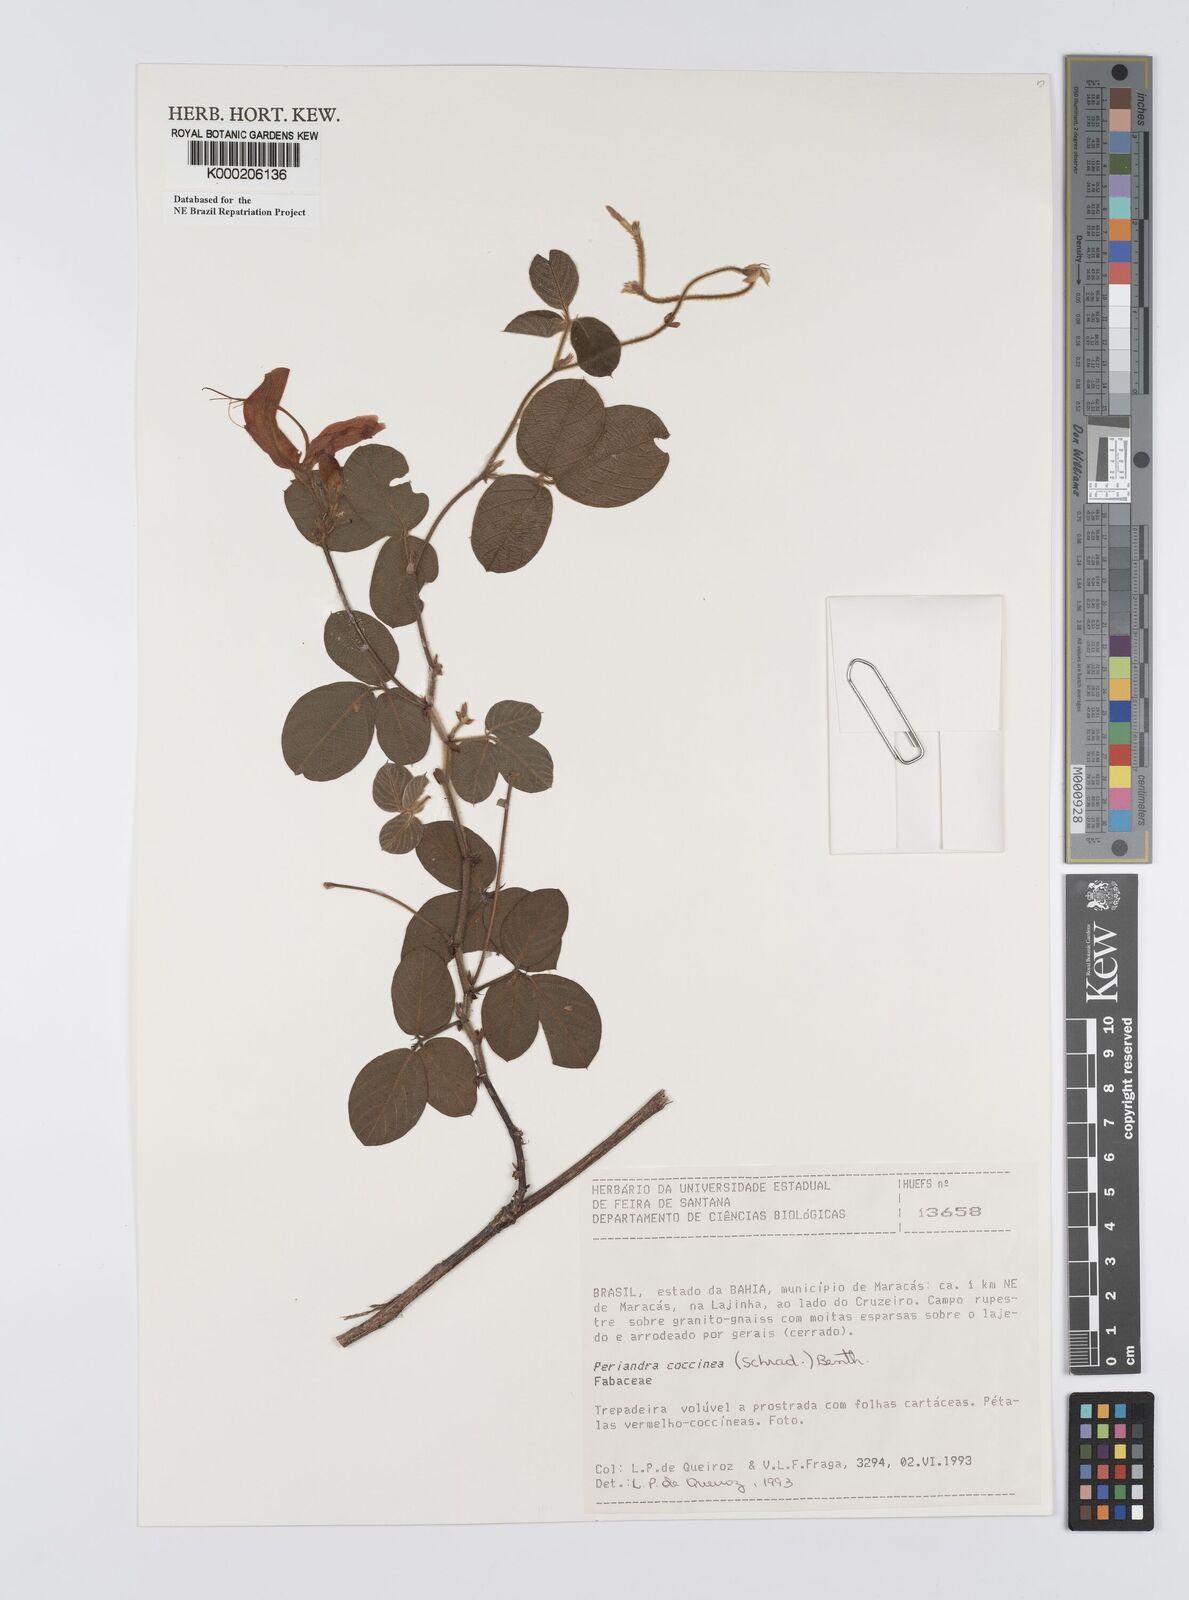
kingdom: Plantae
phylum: Tracheophyta
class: Magnoliopsida
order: Fabales
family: Fabaceae
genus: Periandra
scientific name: Periandra coccinea
